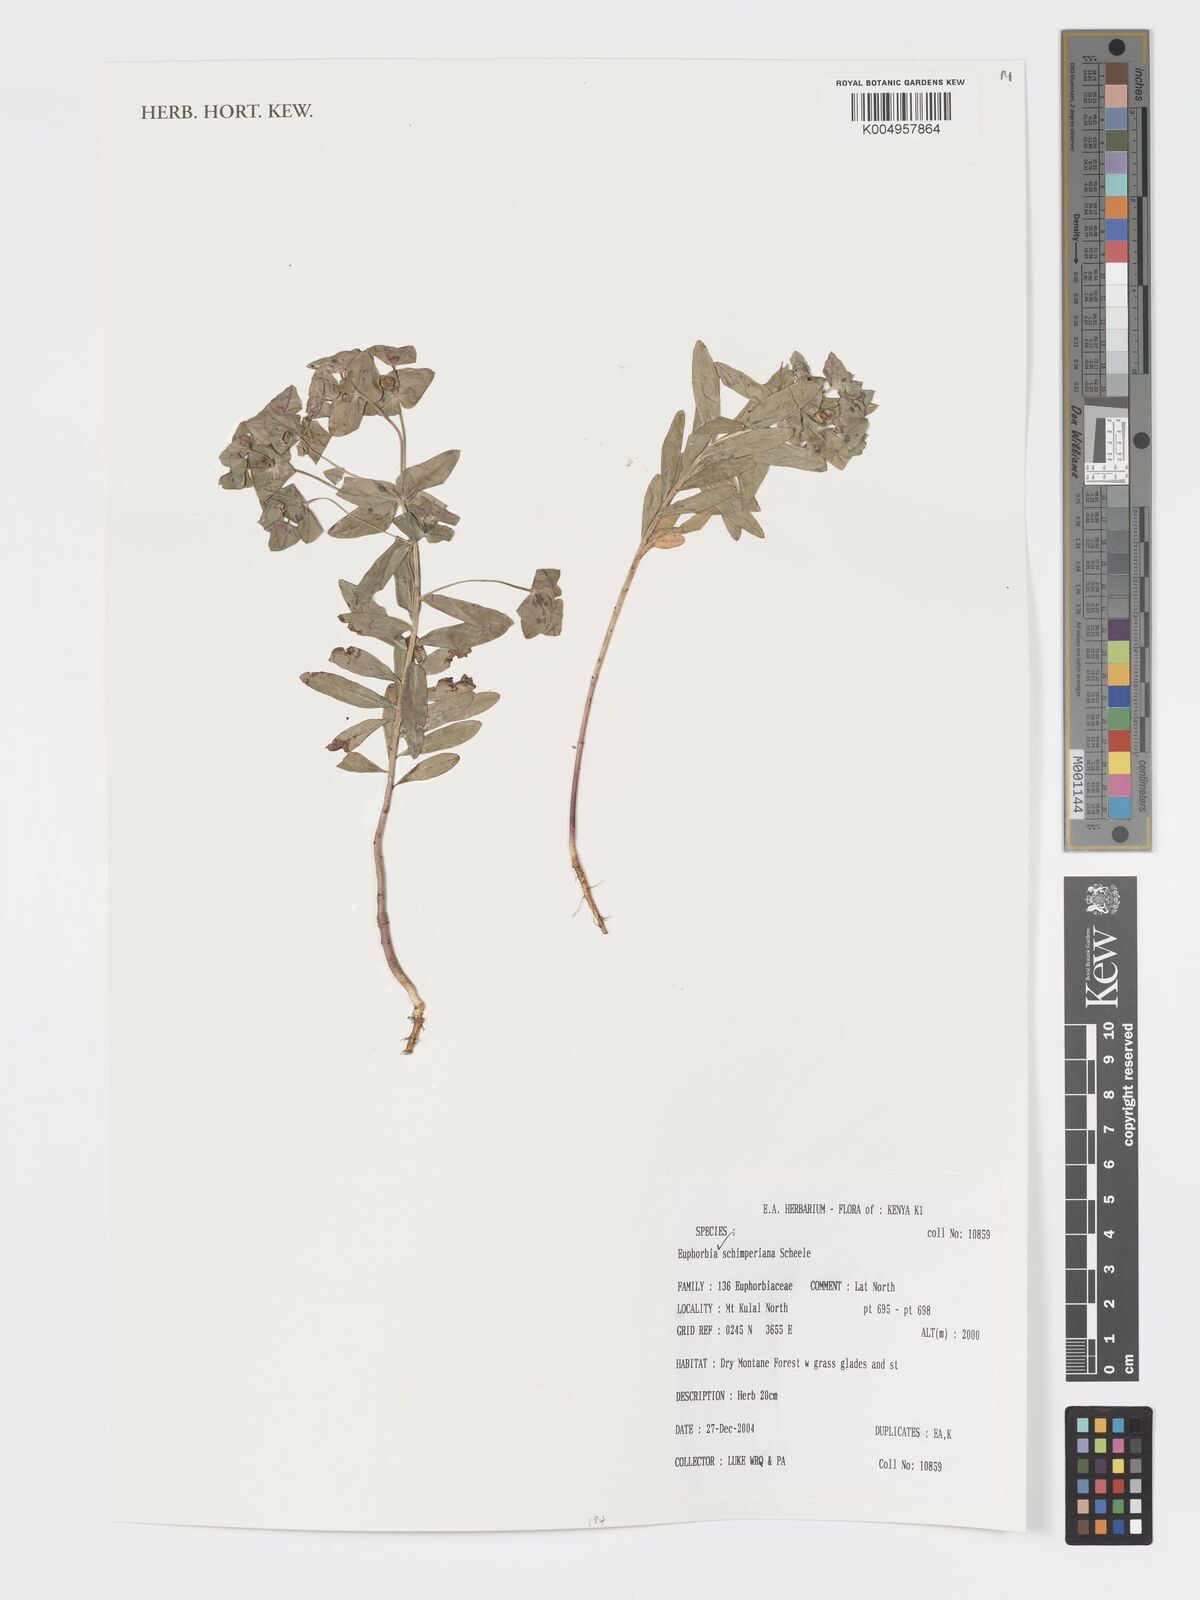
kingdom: Plantae
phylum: Tracheophyta
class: Magnoliopsida
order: Malpighiales
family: Euphorbiaceae
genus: Euphorbia
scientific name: Euphorbia
